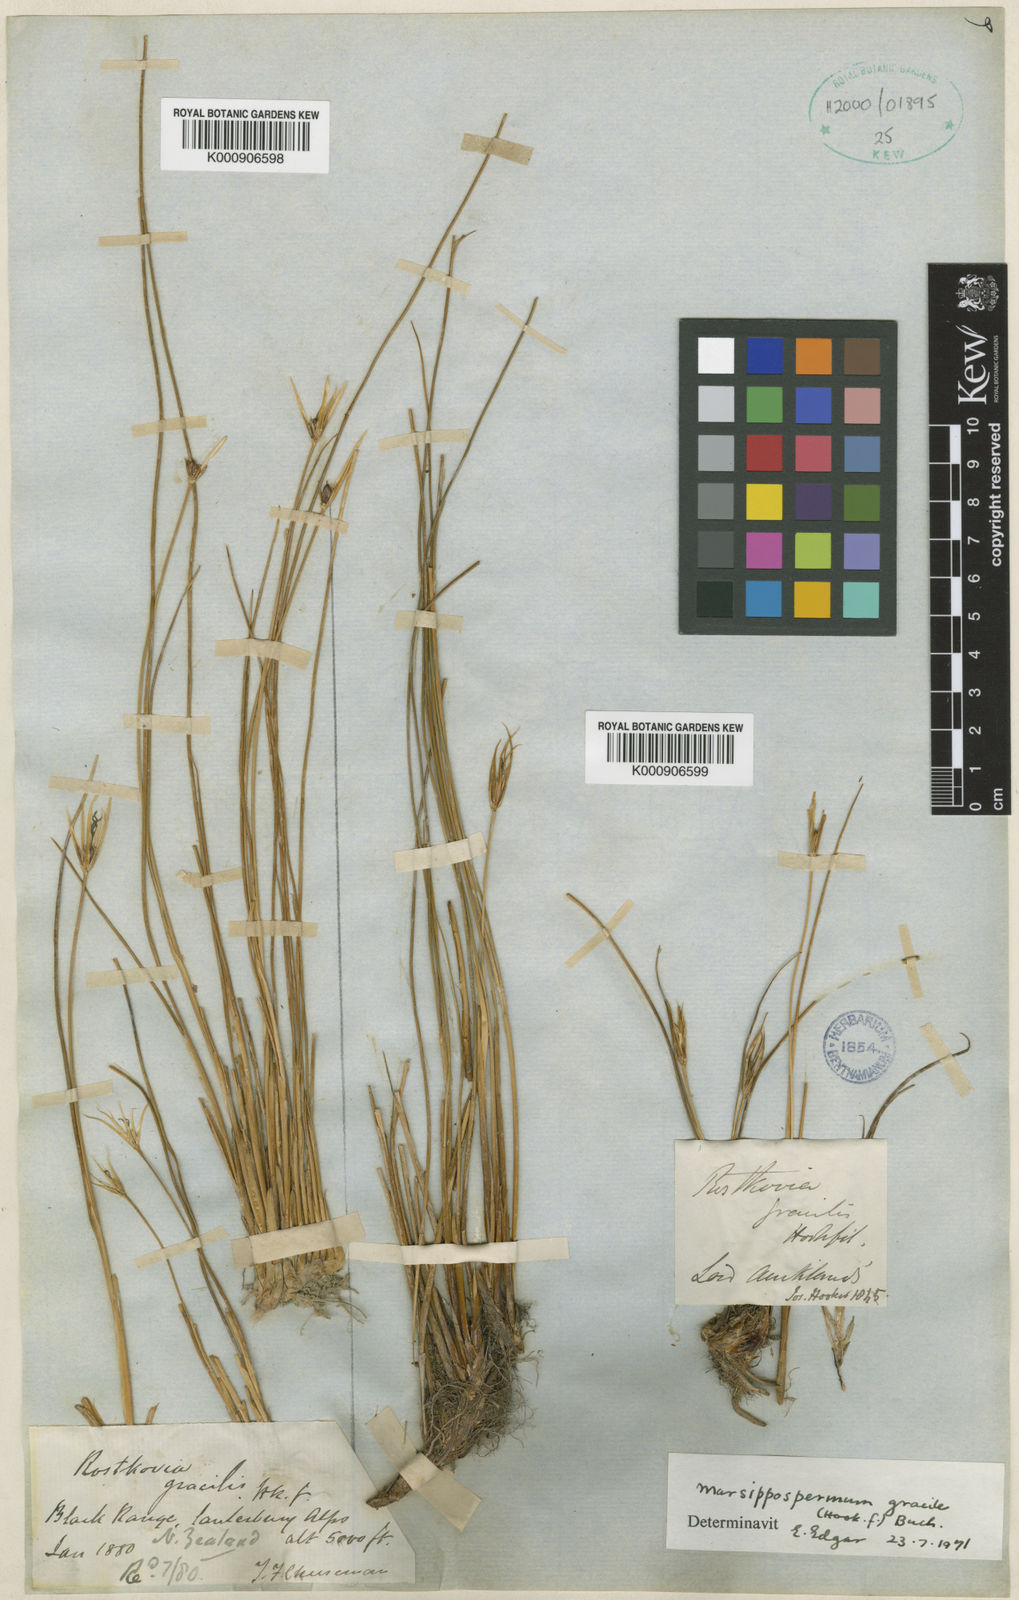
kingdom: Plantae
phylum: Tracheophyta
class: Liliopsida
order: Poales
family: Juncaceae
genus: Marsippospermum
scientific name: Marsippospermum gracile
